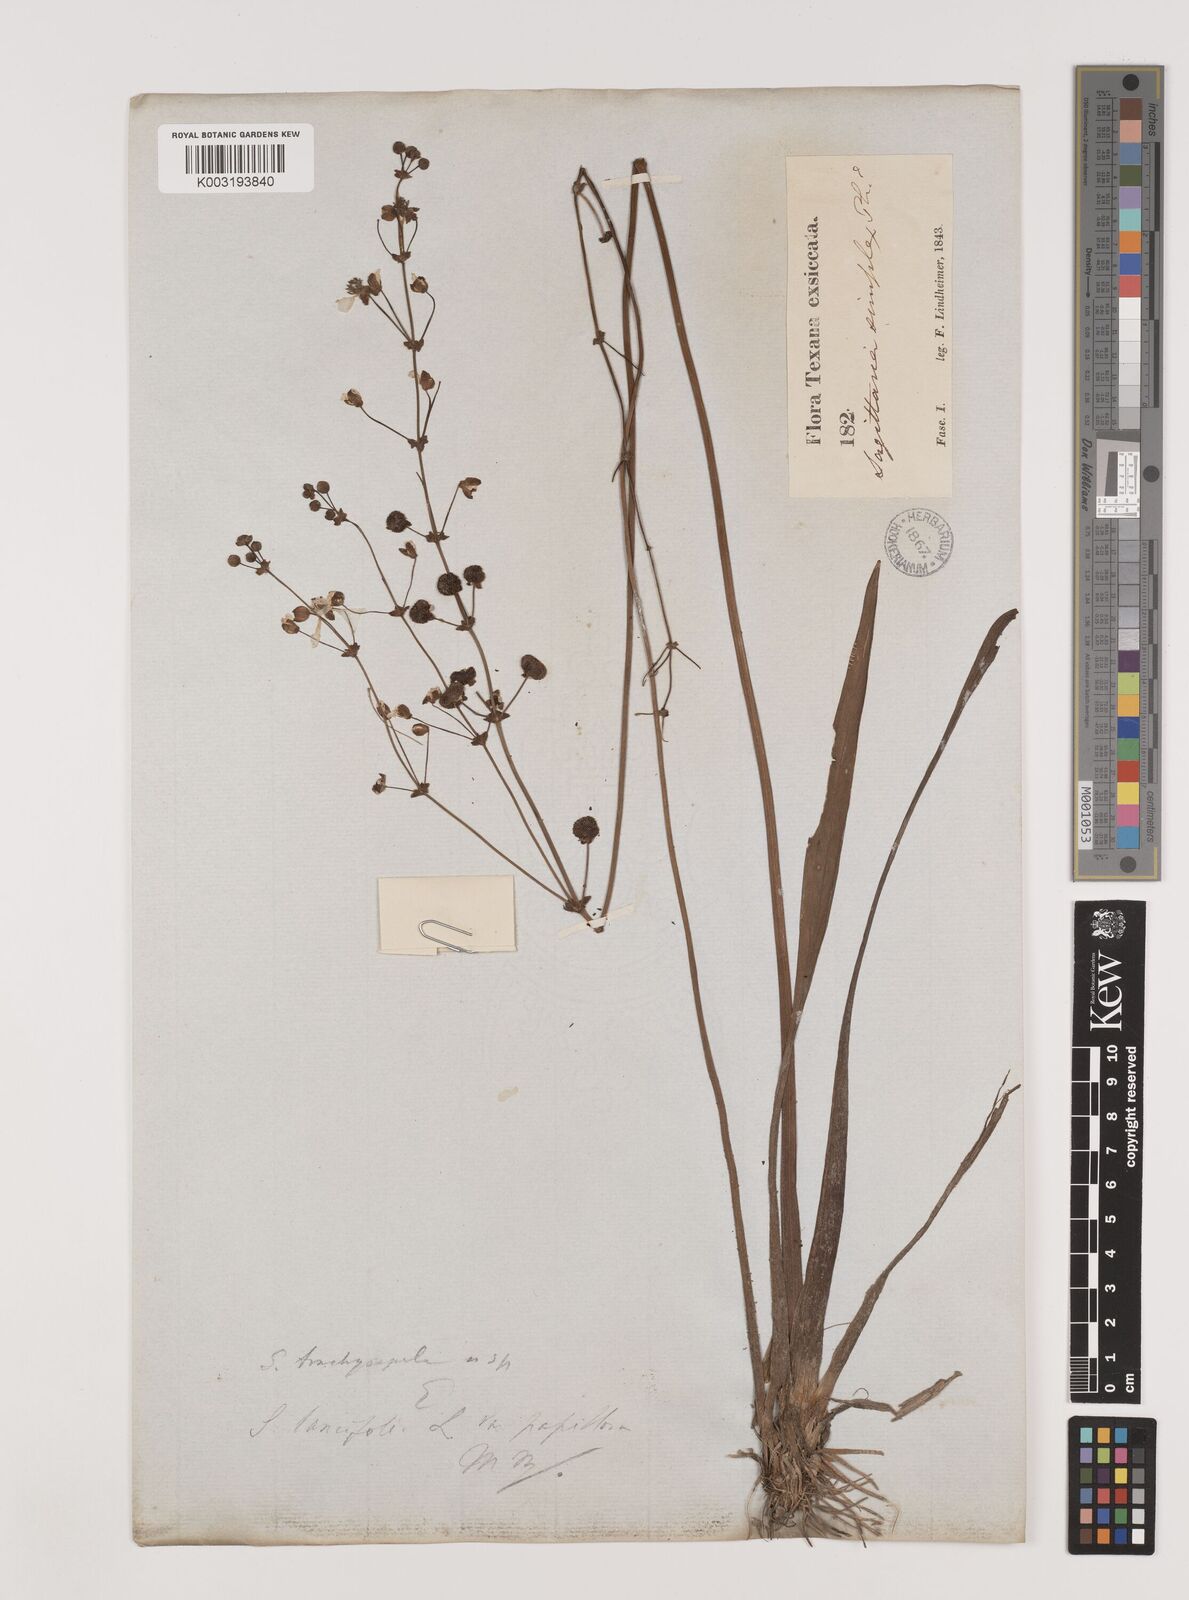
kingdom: Plantae
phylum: Tracheophyta
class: Liliopsida
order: Alismatales
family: Alismataceae
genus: Sagittaria
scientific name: Sagittaria papillosa
